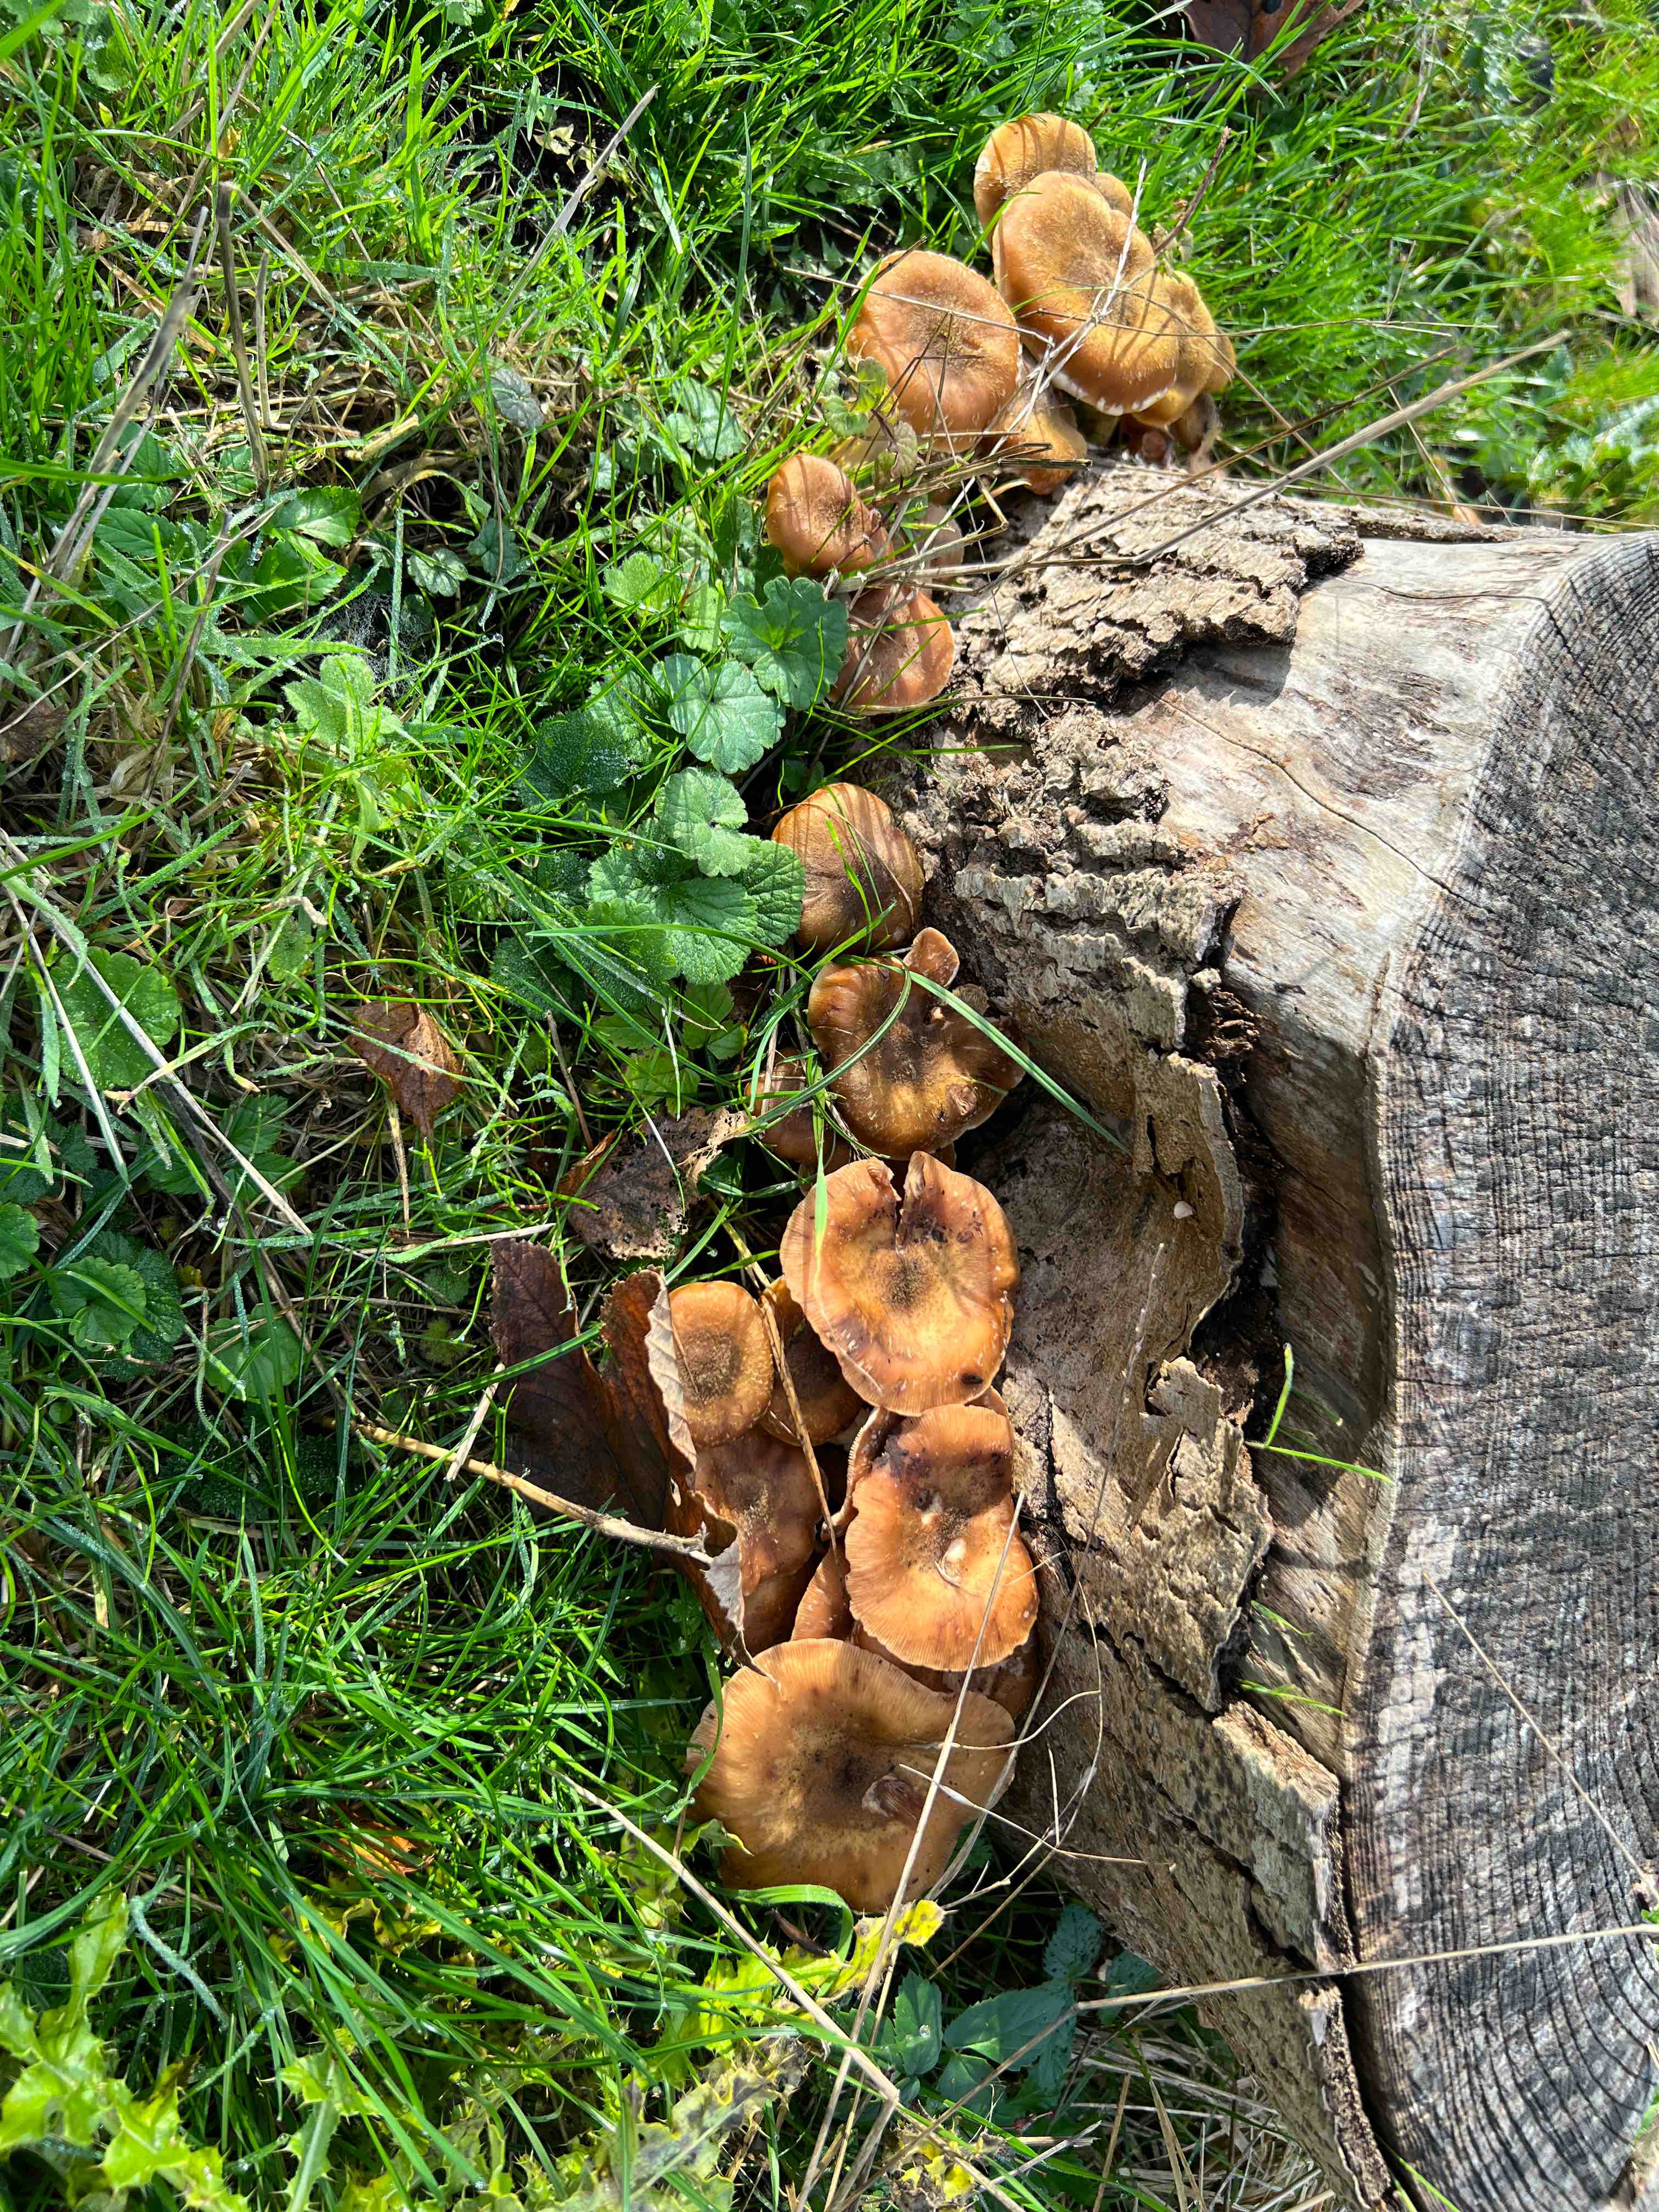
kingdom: Fungi
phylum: Basidiomycota
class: Agaricomycetes
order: Agaricales
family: Physalacriaceae
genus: Armillaria
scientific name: Armillaria lutea
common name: køllestokket honningsvamp
